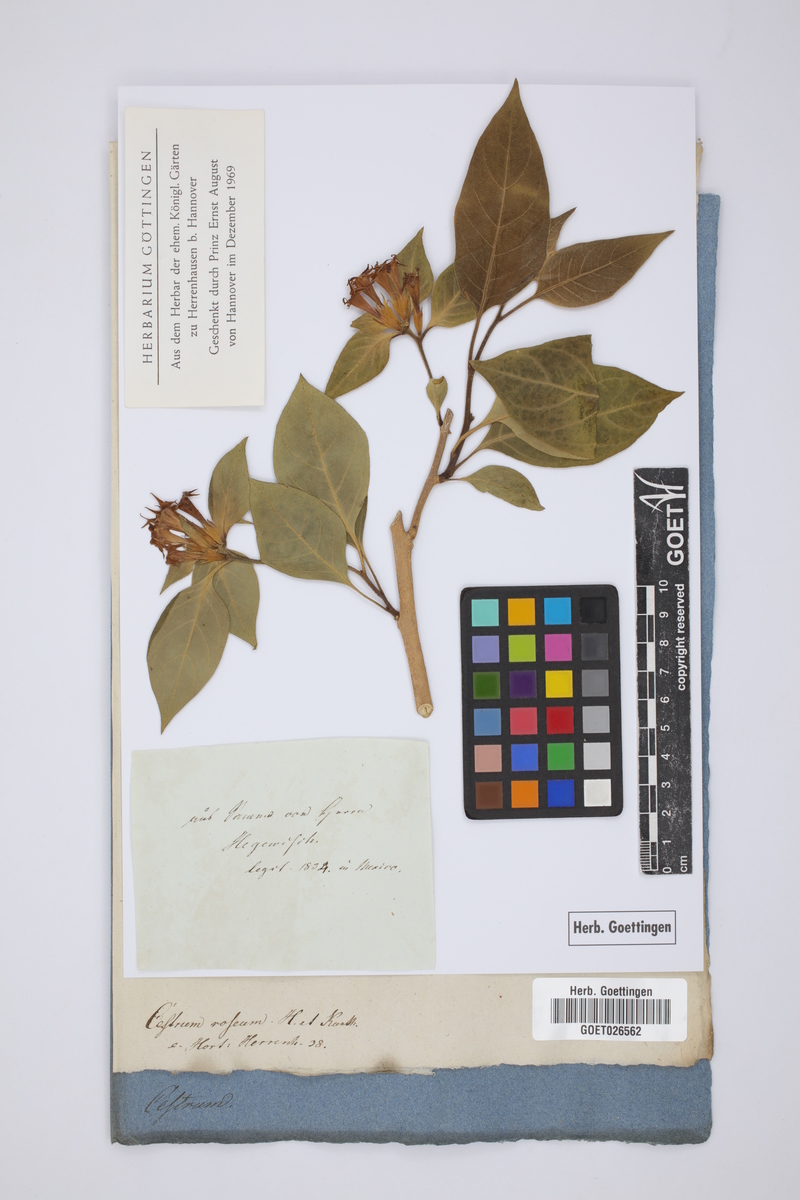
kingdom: Plantae
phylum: Tracheophyta
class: Magnoliopsida
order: Solanales
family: Solanaceae
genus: Cestrum
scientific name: Cestrum roseum
